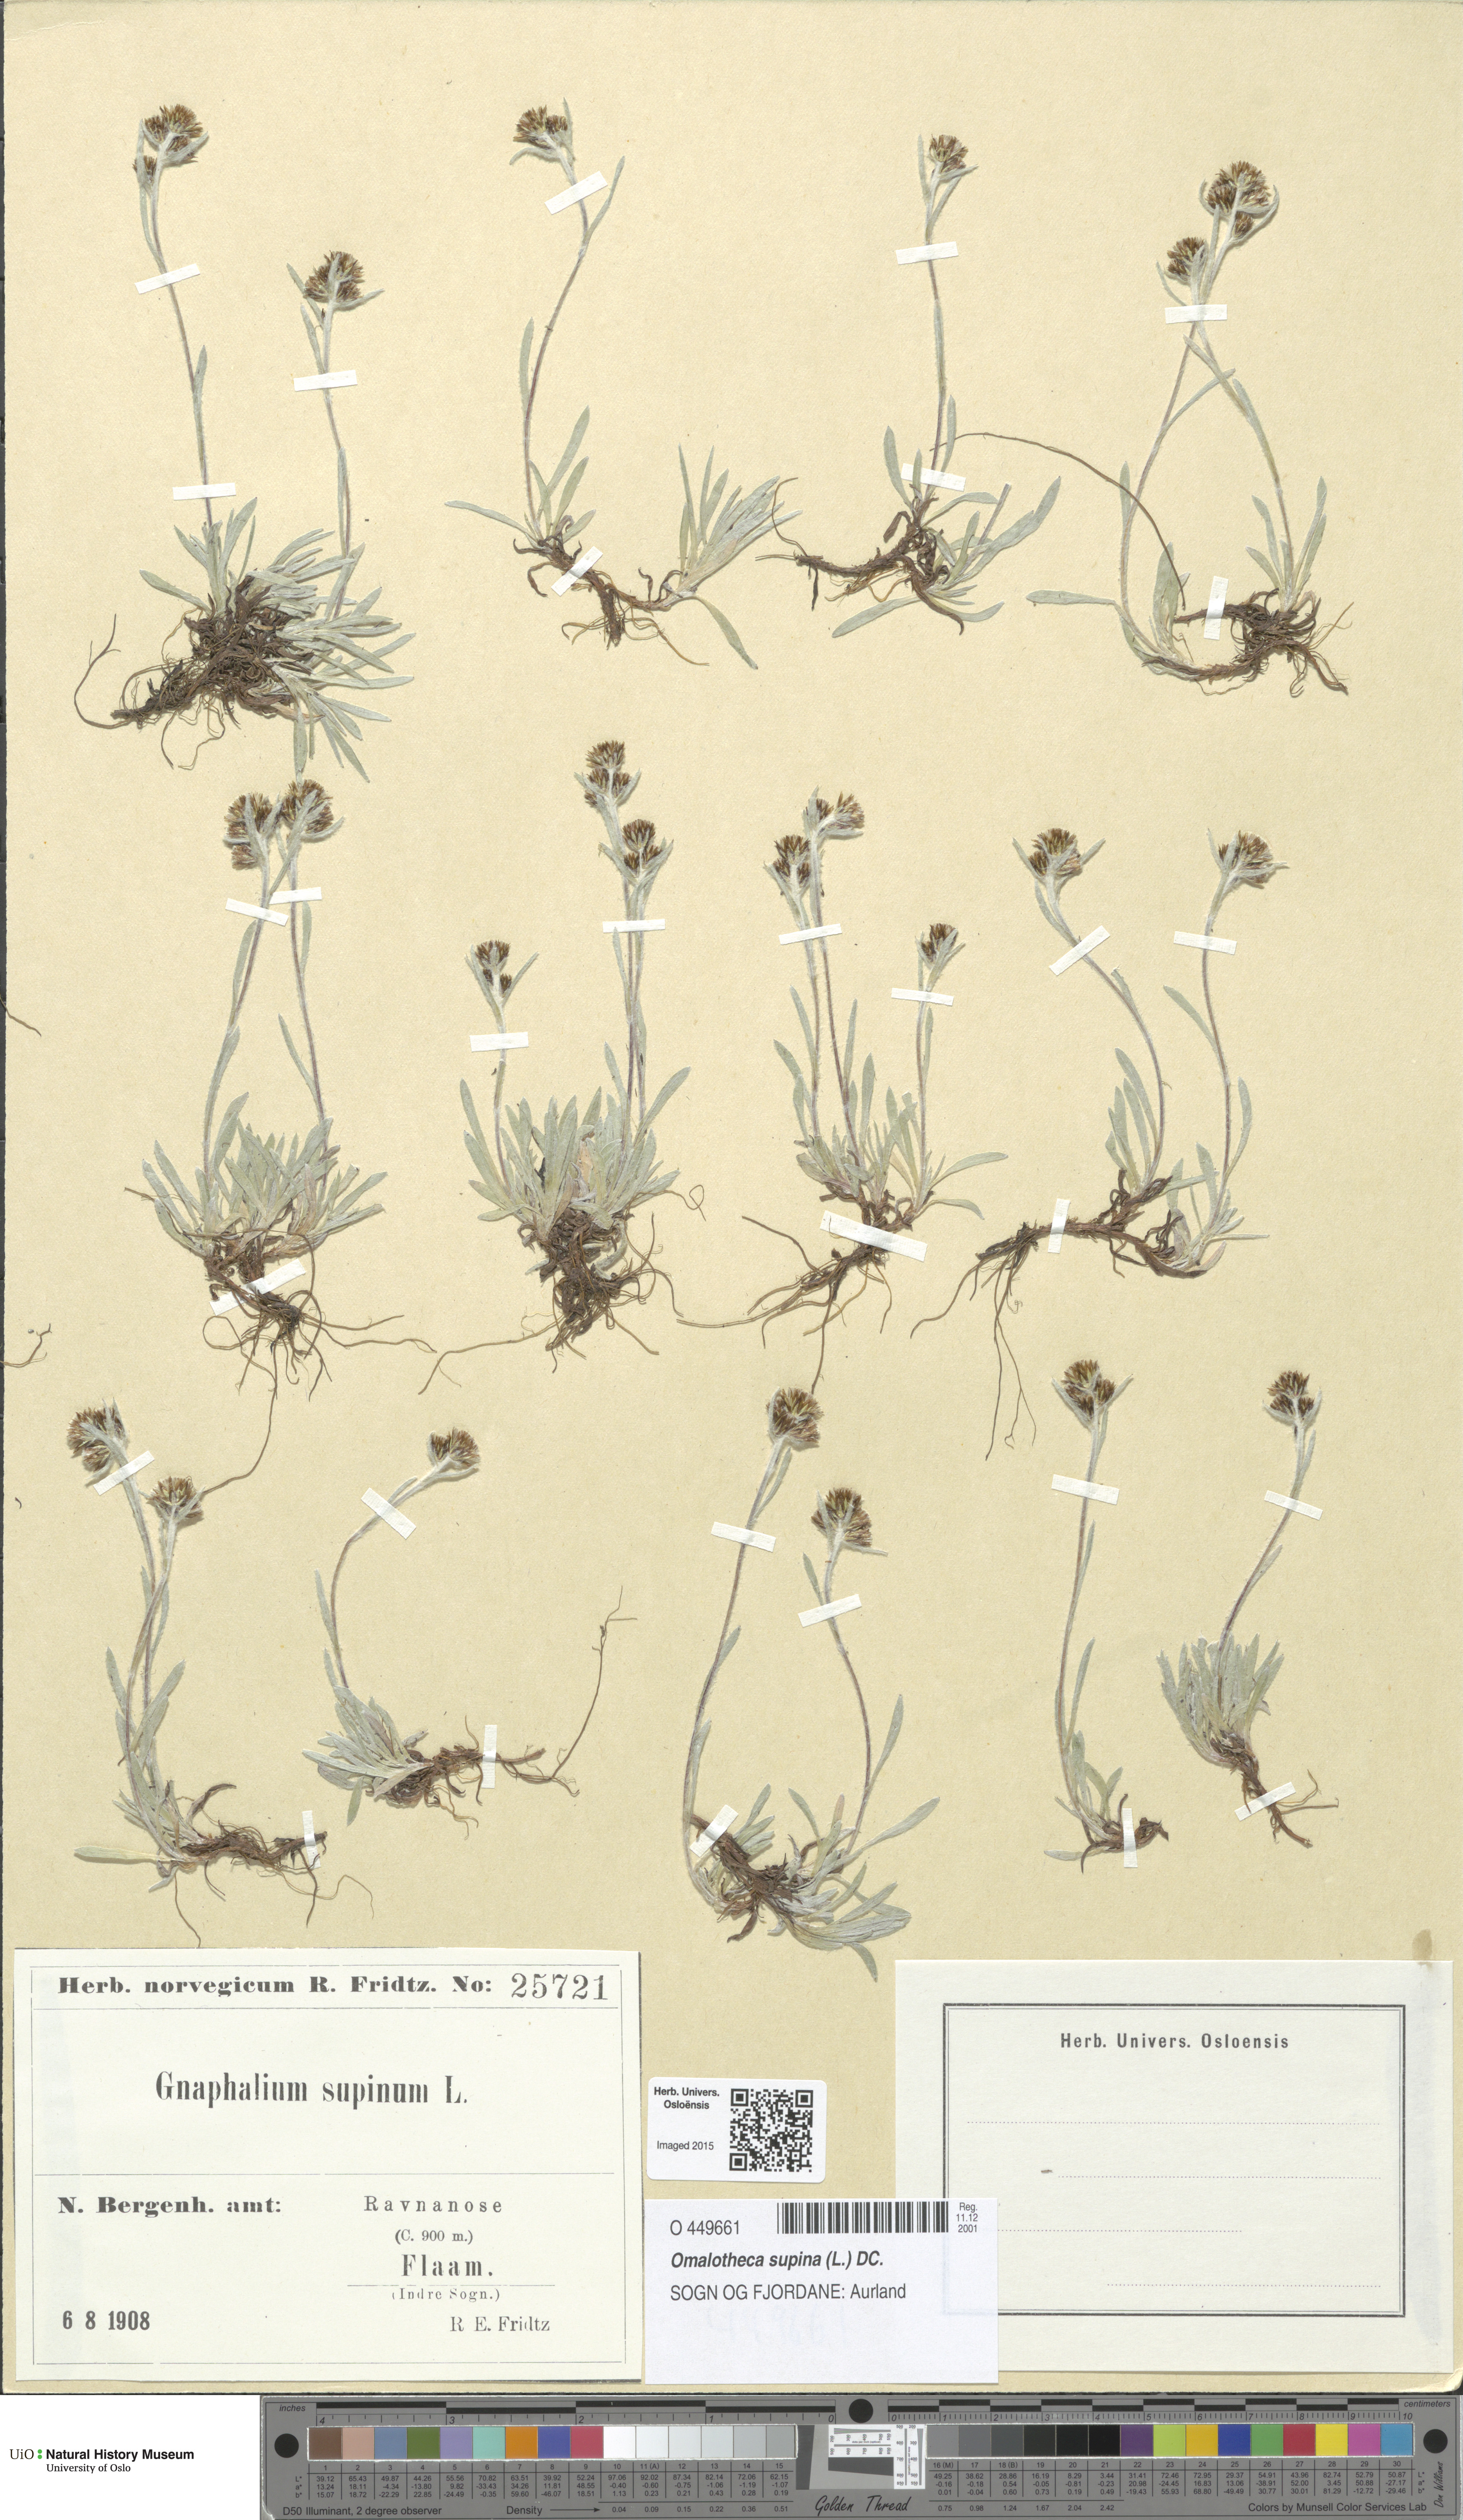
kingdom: Plantae
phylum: Tracheophyta
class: Magnoliopsida
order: Asterales
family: Asteraceae
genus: Omalotheca
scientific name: Omalotheca supina
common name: Alpine arctic-cudweed
